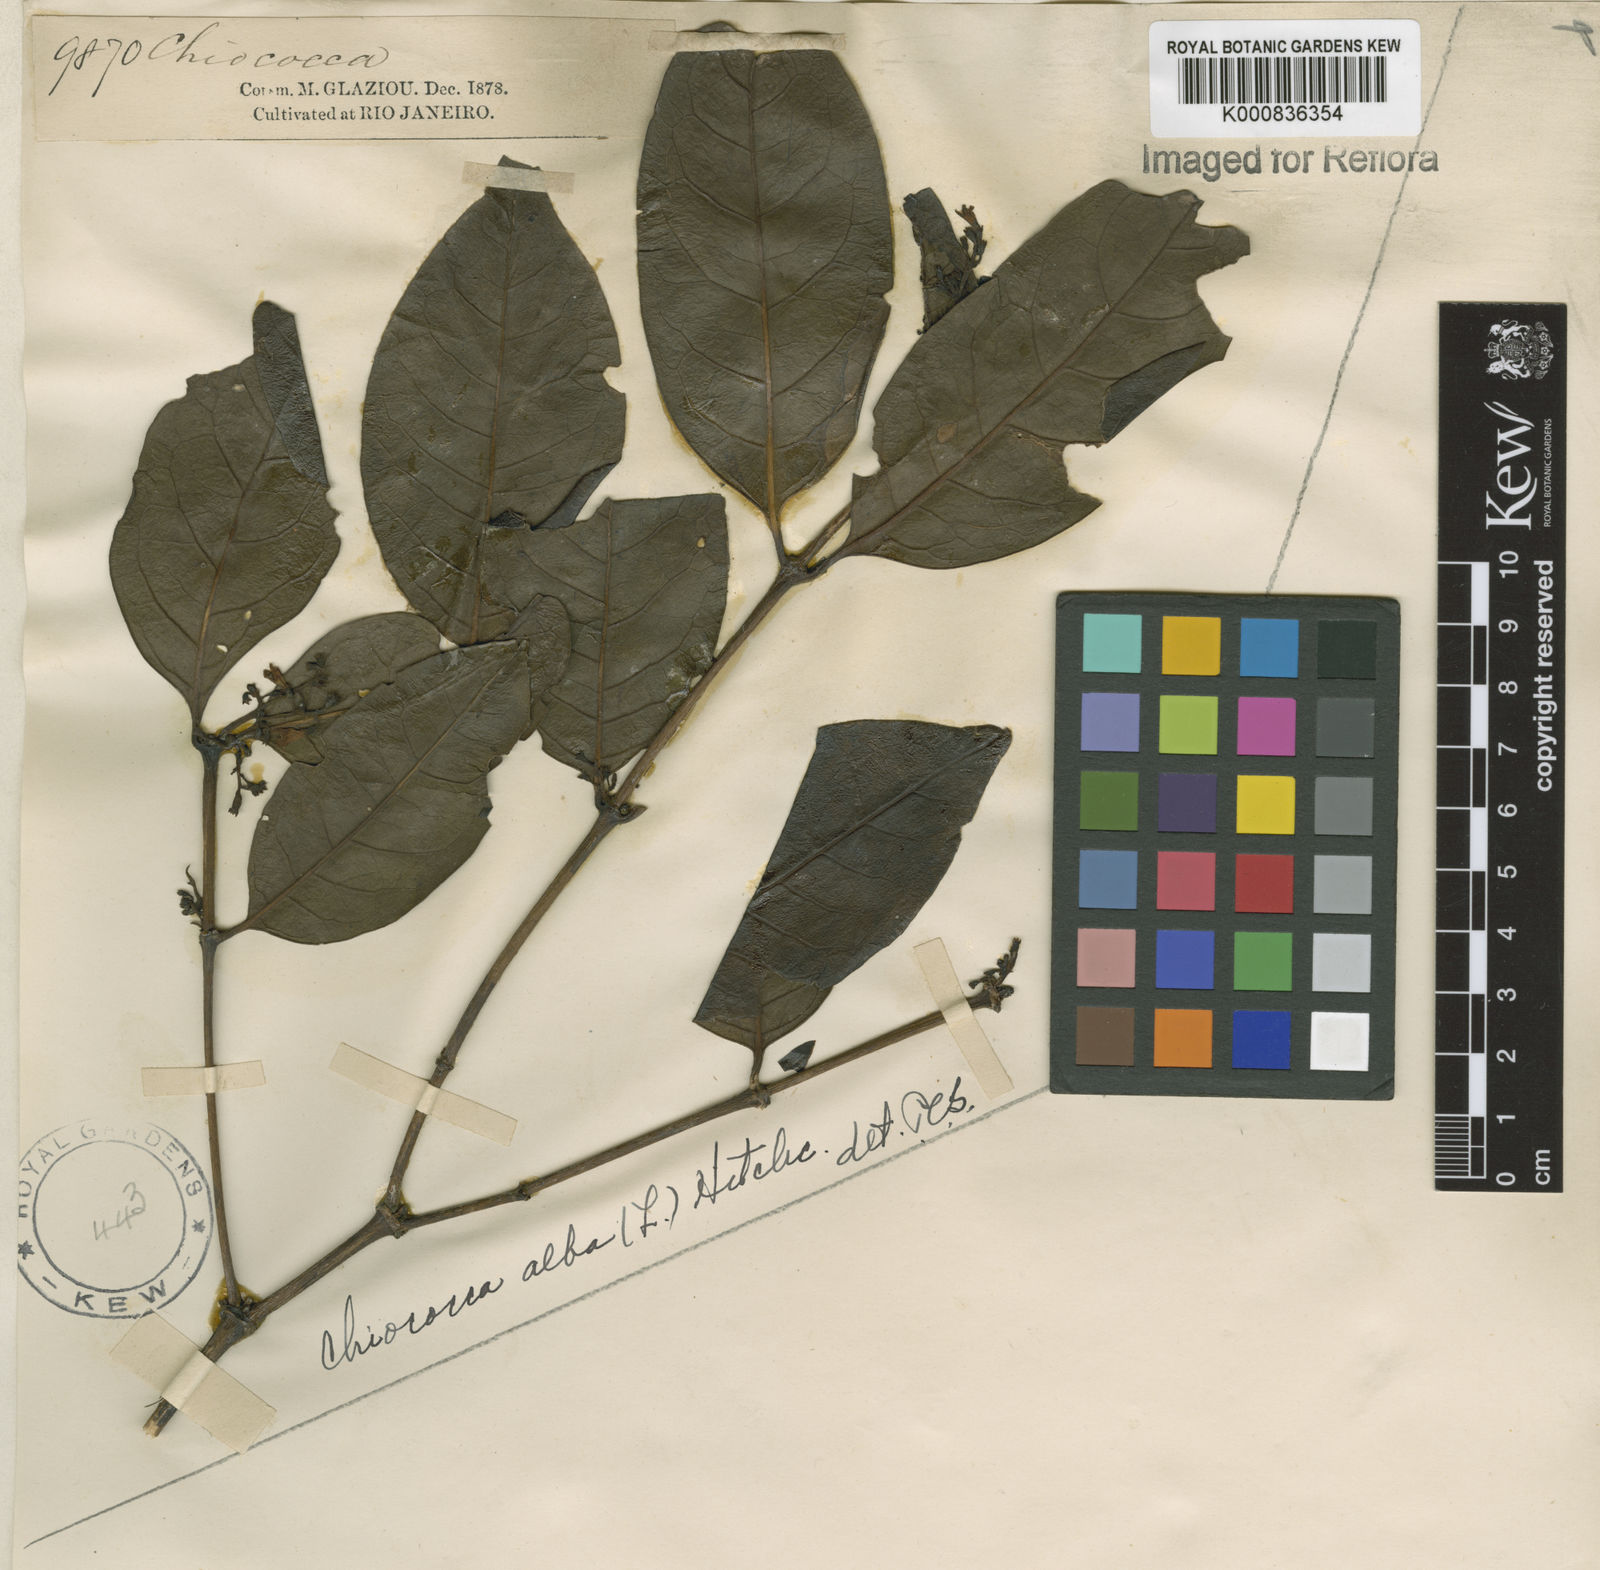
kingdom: Plantae
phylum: Tracheophyta
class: Magnoliopsida
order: Gentianales
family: Rubiaceae
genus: Chiococca
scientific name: Chiococca alba
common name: Snowberry
